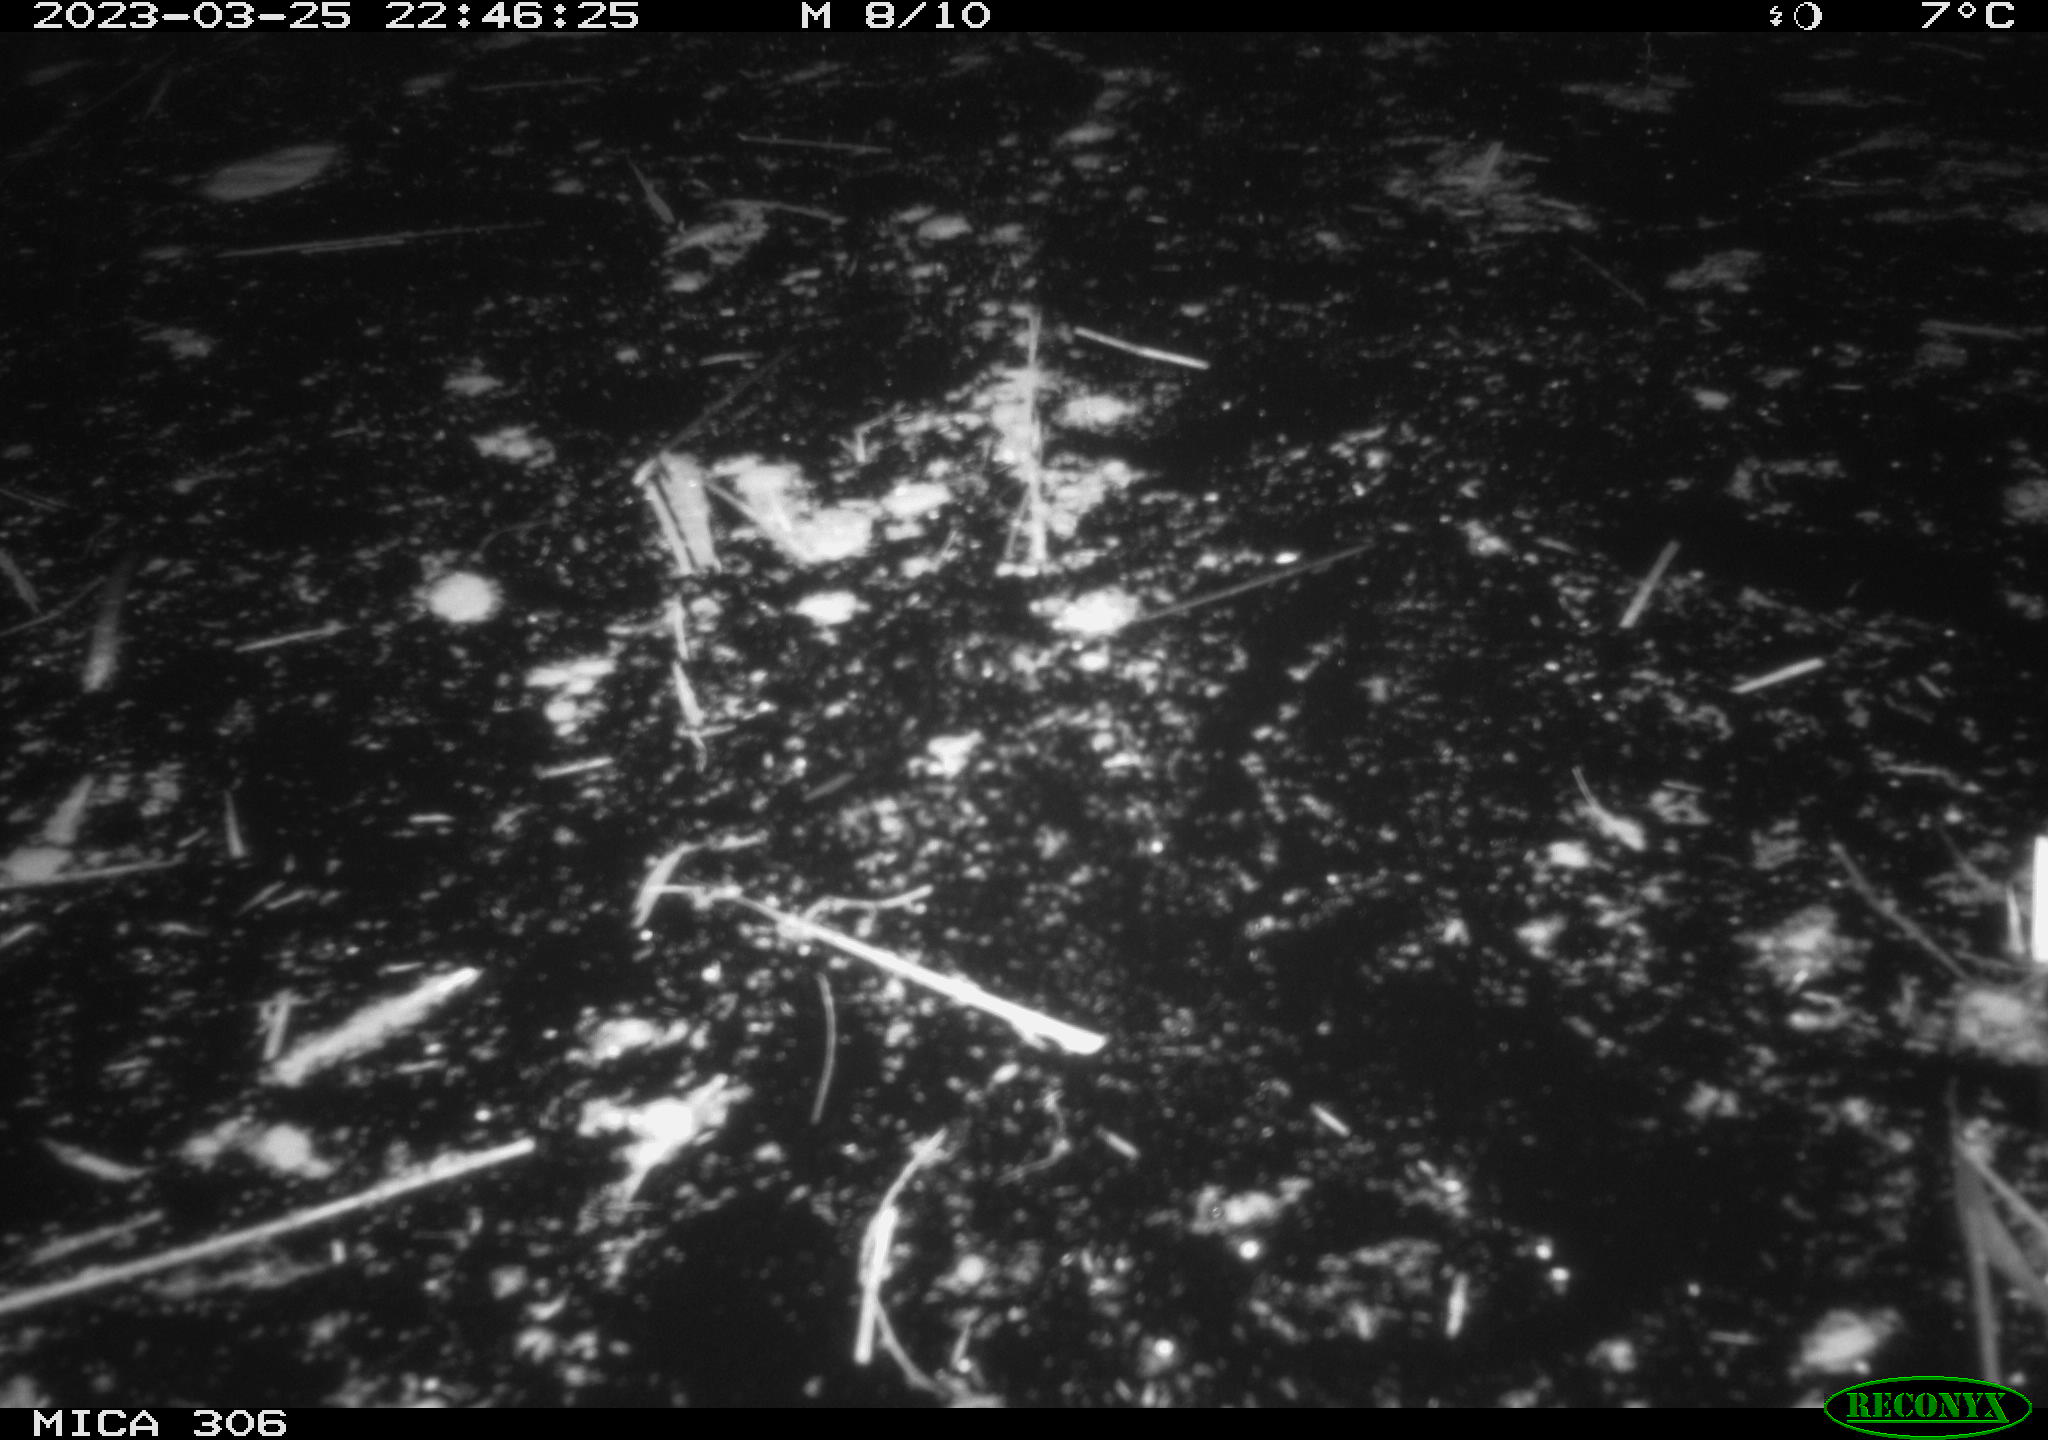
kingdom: Animalia
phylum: Chordata
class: Aves
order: Anseriformes
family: Anatidae
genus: Anas
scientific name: Anas
